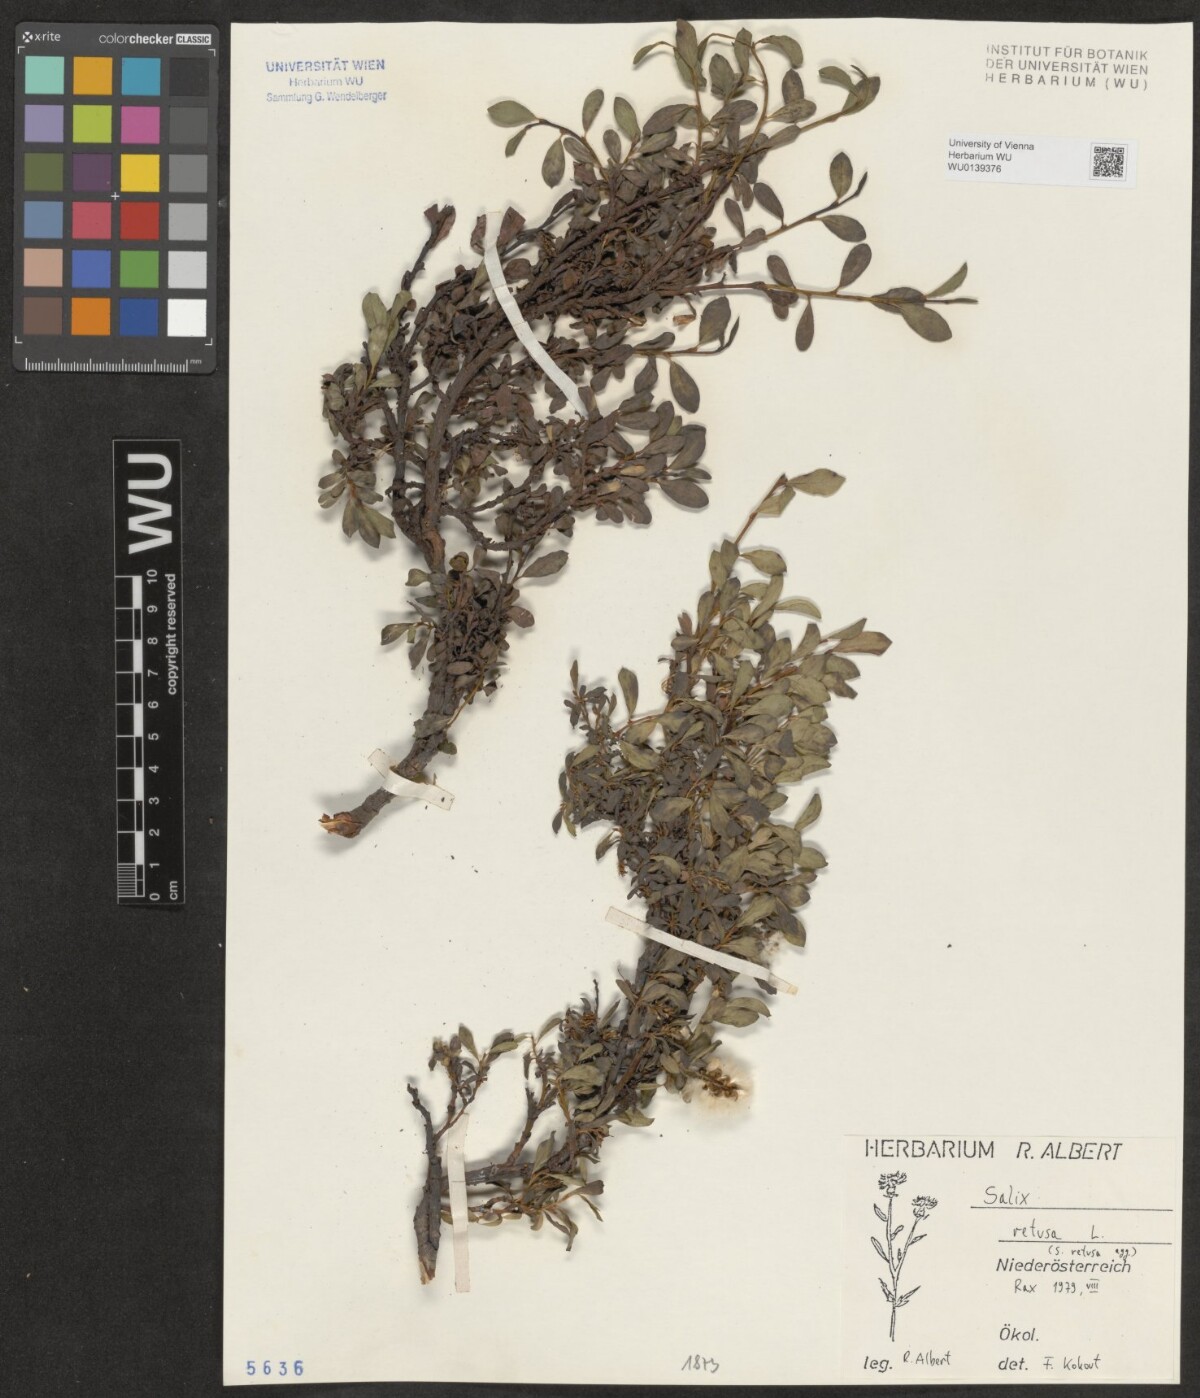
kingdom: Plantae
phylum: Tracheophyta
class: Magnoliopsida
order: Malpighiales
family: Salicaceae
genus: Salix
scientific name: Salix retusa
